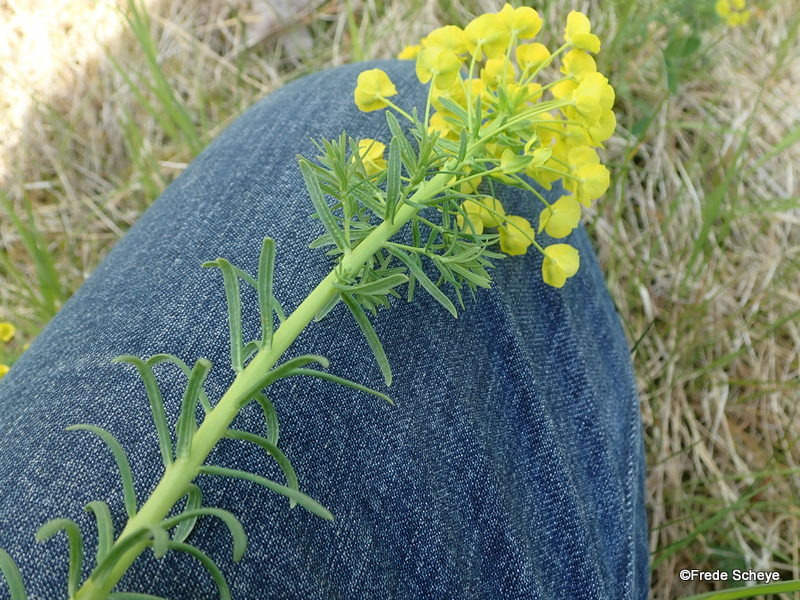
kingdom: Plantae
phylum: Tracheophyta
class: Magnoliopsida
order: Malpighiales
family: Euphorbiaceae
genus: Euphorbia
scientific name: Euphorbia cyparissias
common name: Cypres-vortemælk
